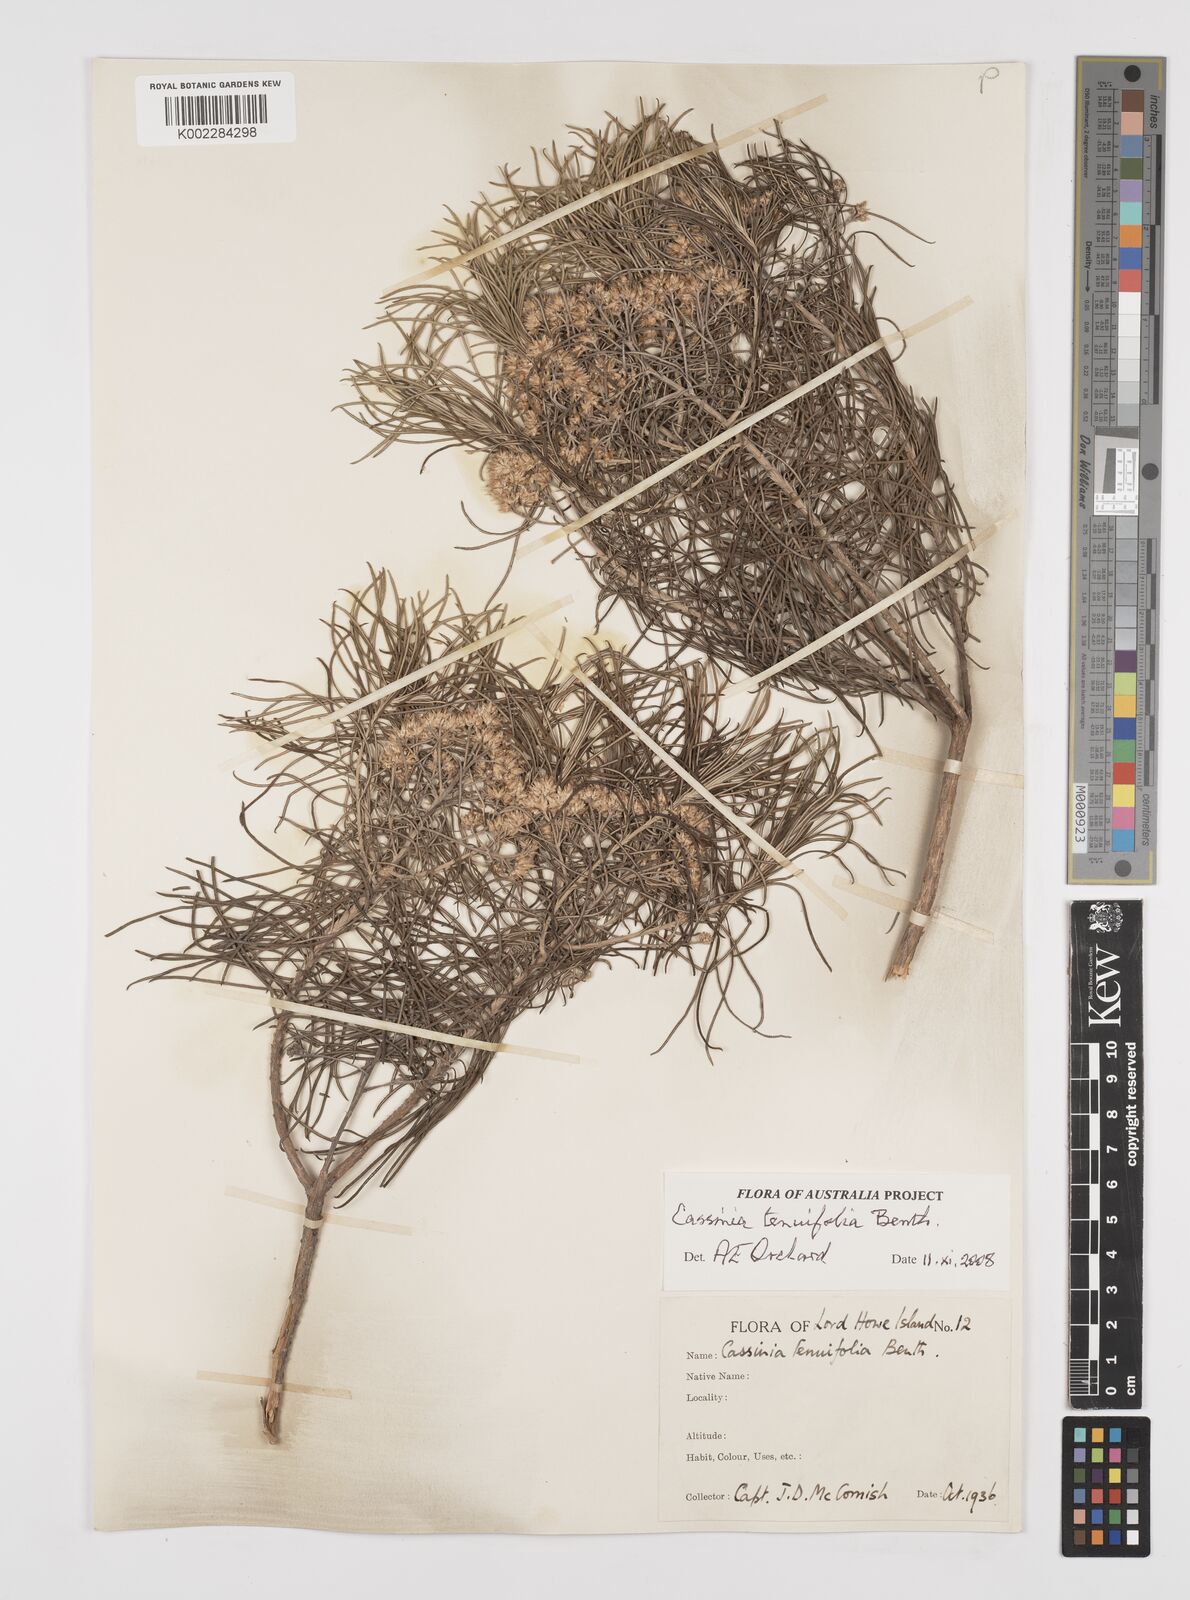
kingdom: Plantae
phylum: Tracheophyta
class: Magnoliopsida
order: Asterales
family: Asteraceae
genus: Cassinia
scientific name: Cassinia tenuifolia
